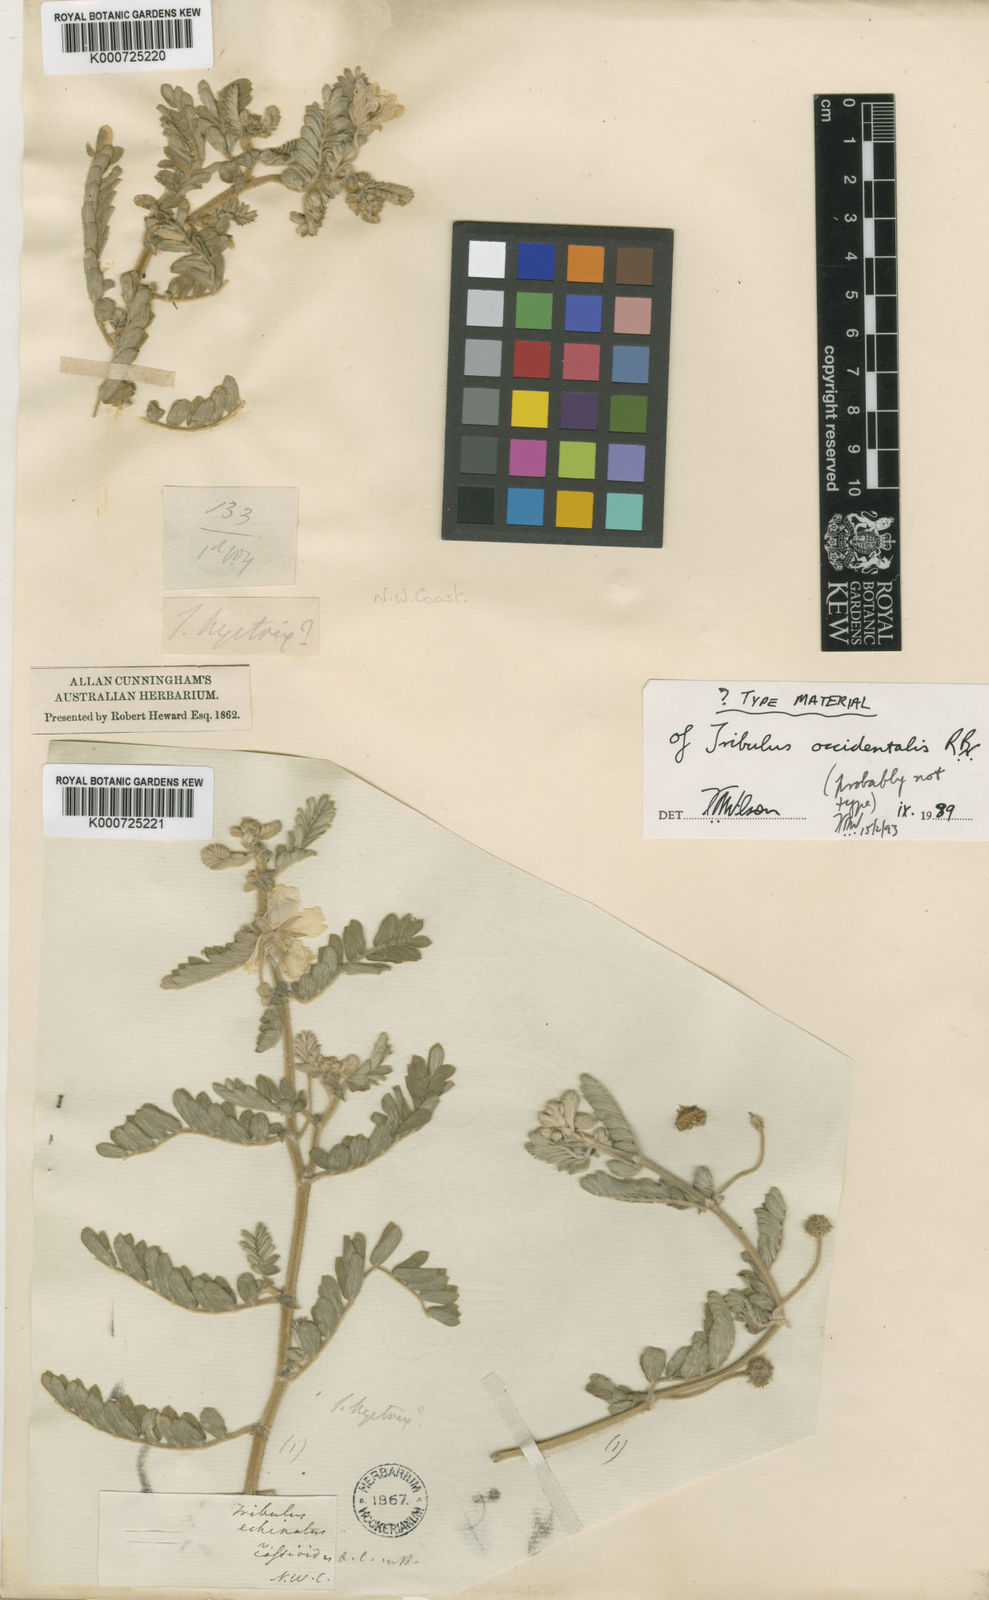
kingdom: Plantae
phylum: Tracheophyta
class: Magnoliopsida
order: Zygophyllales
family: Zygophyllaceae
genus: Tribulus
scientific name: Tribulus occidentalis
